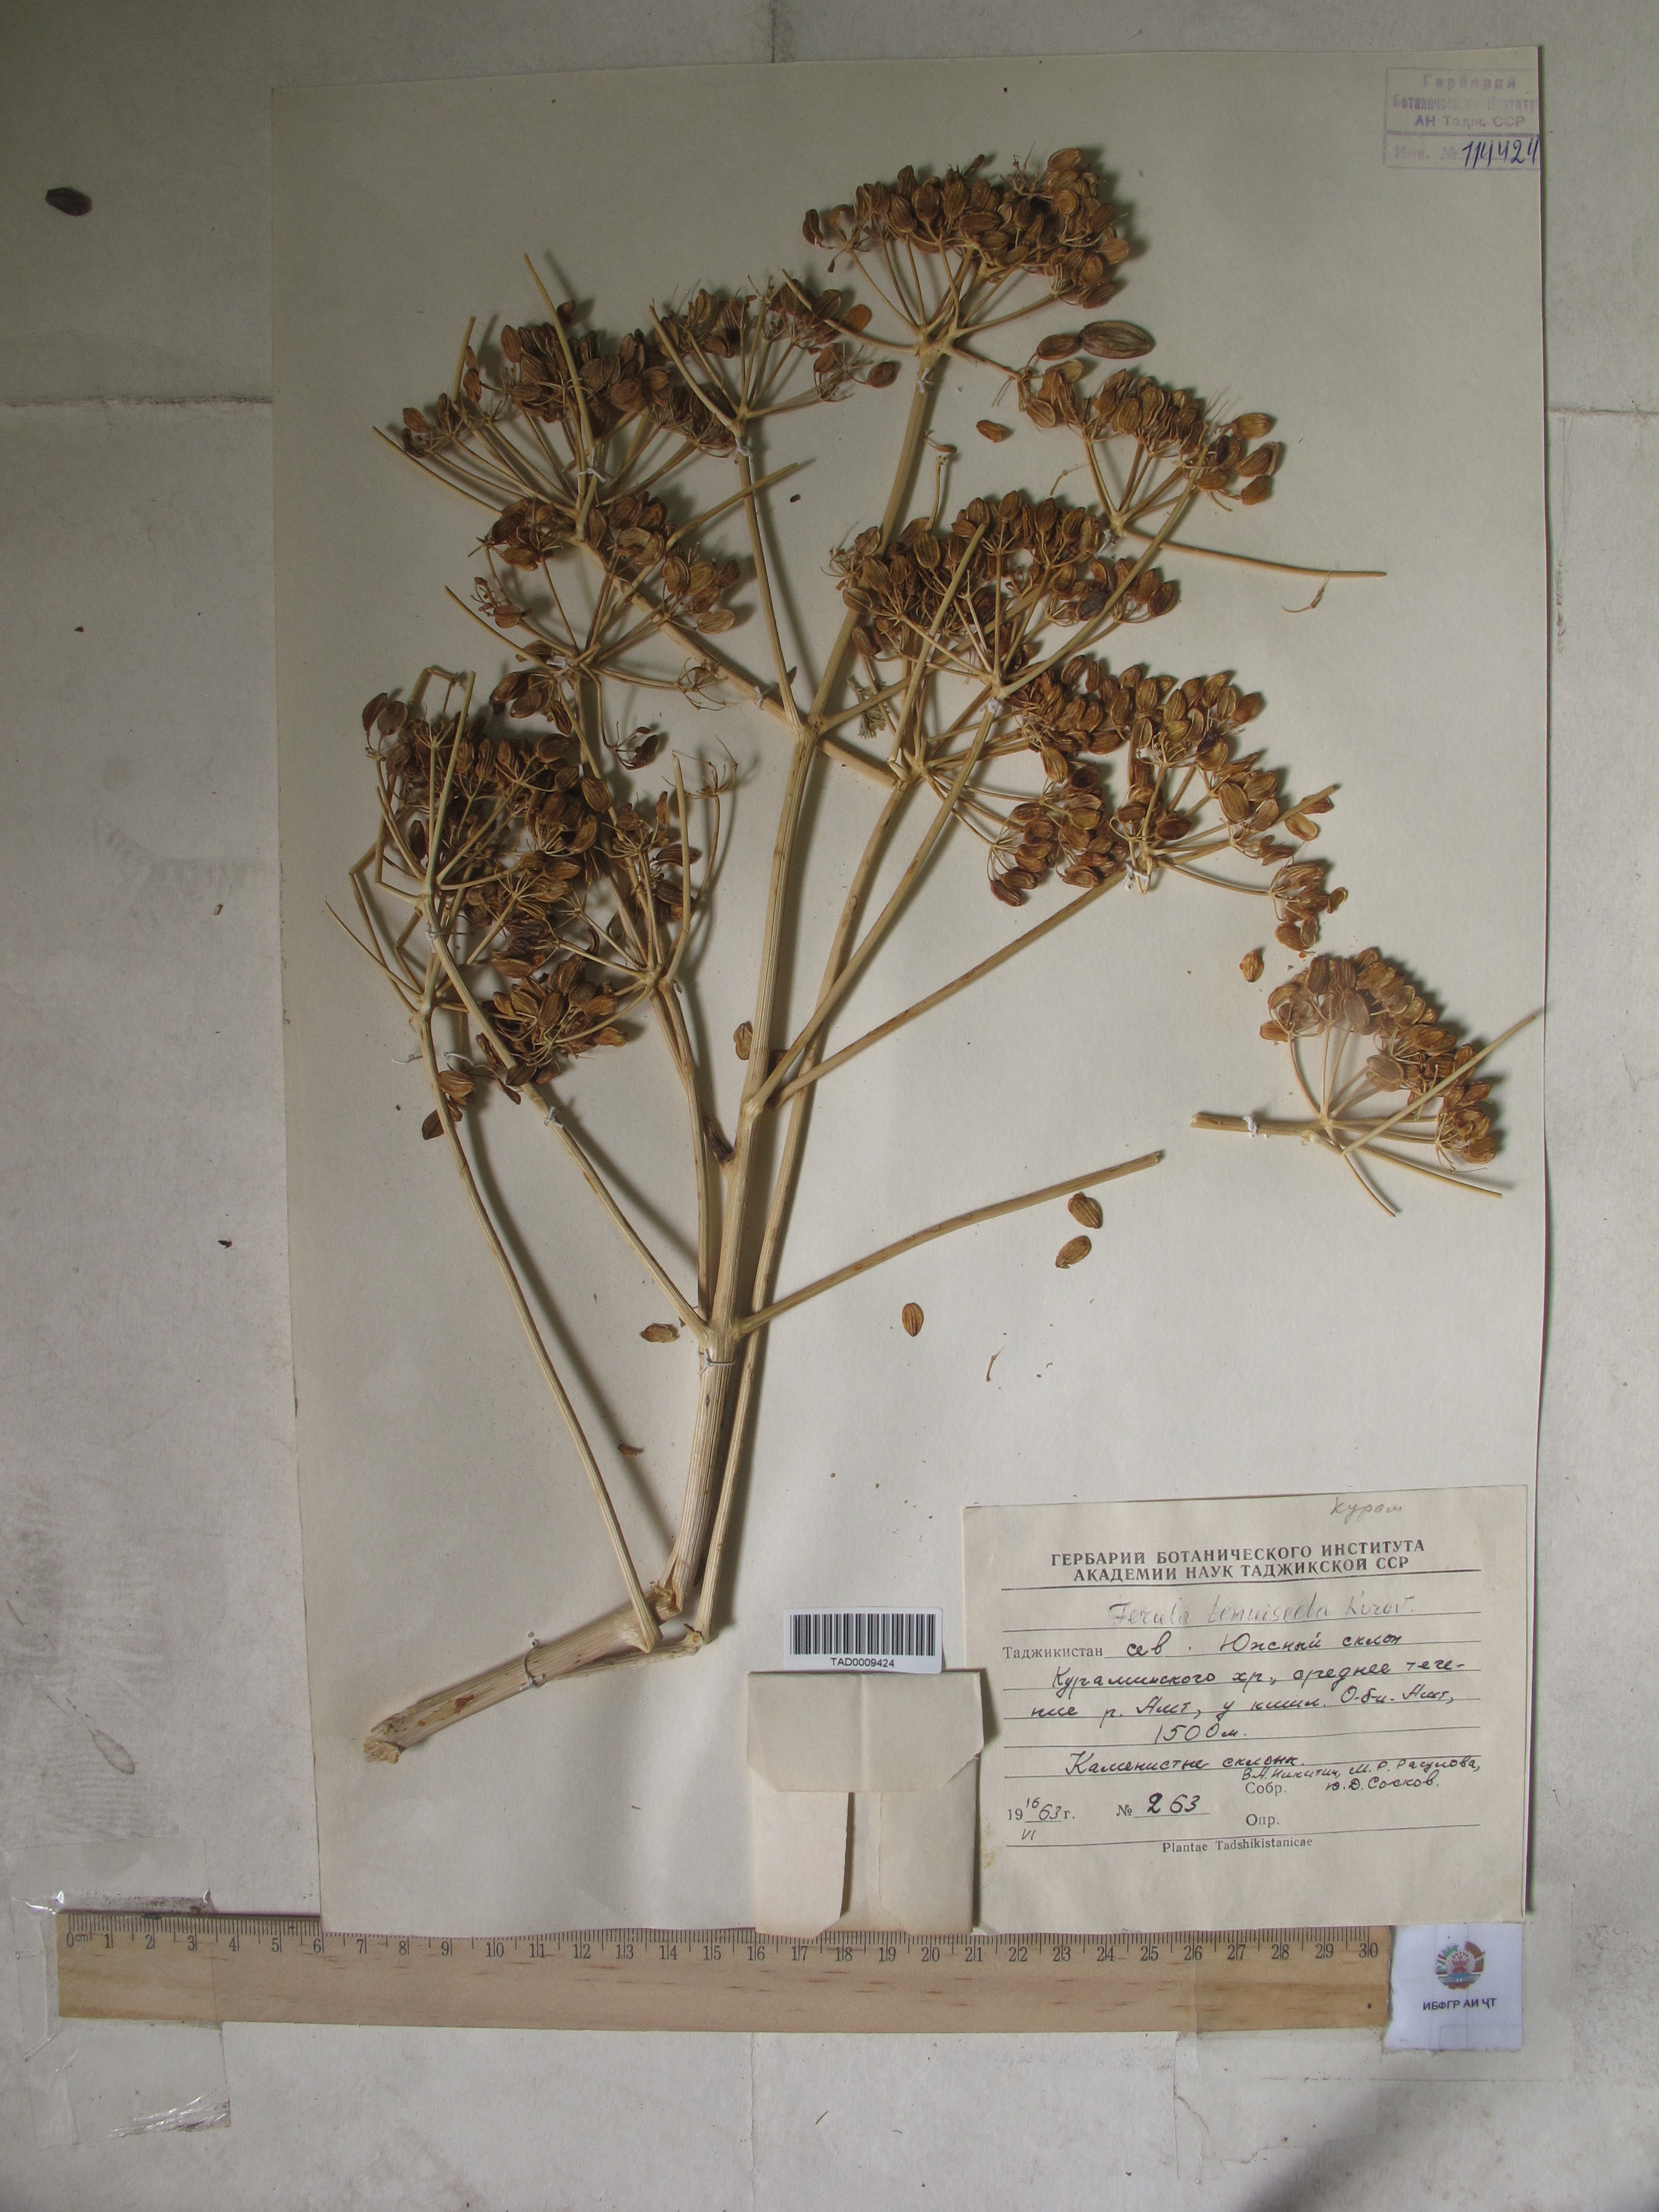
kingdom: Plantae
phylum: Tracheophyta
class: Magnoliopsida
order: Apiales
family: Apiaceae
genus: Ferula
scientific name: Ferula tenuisecta
